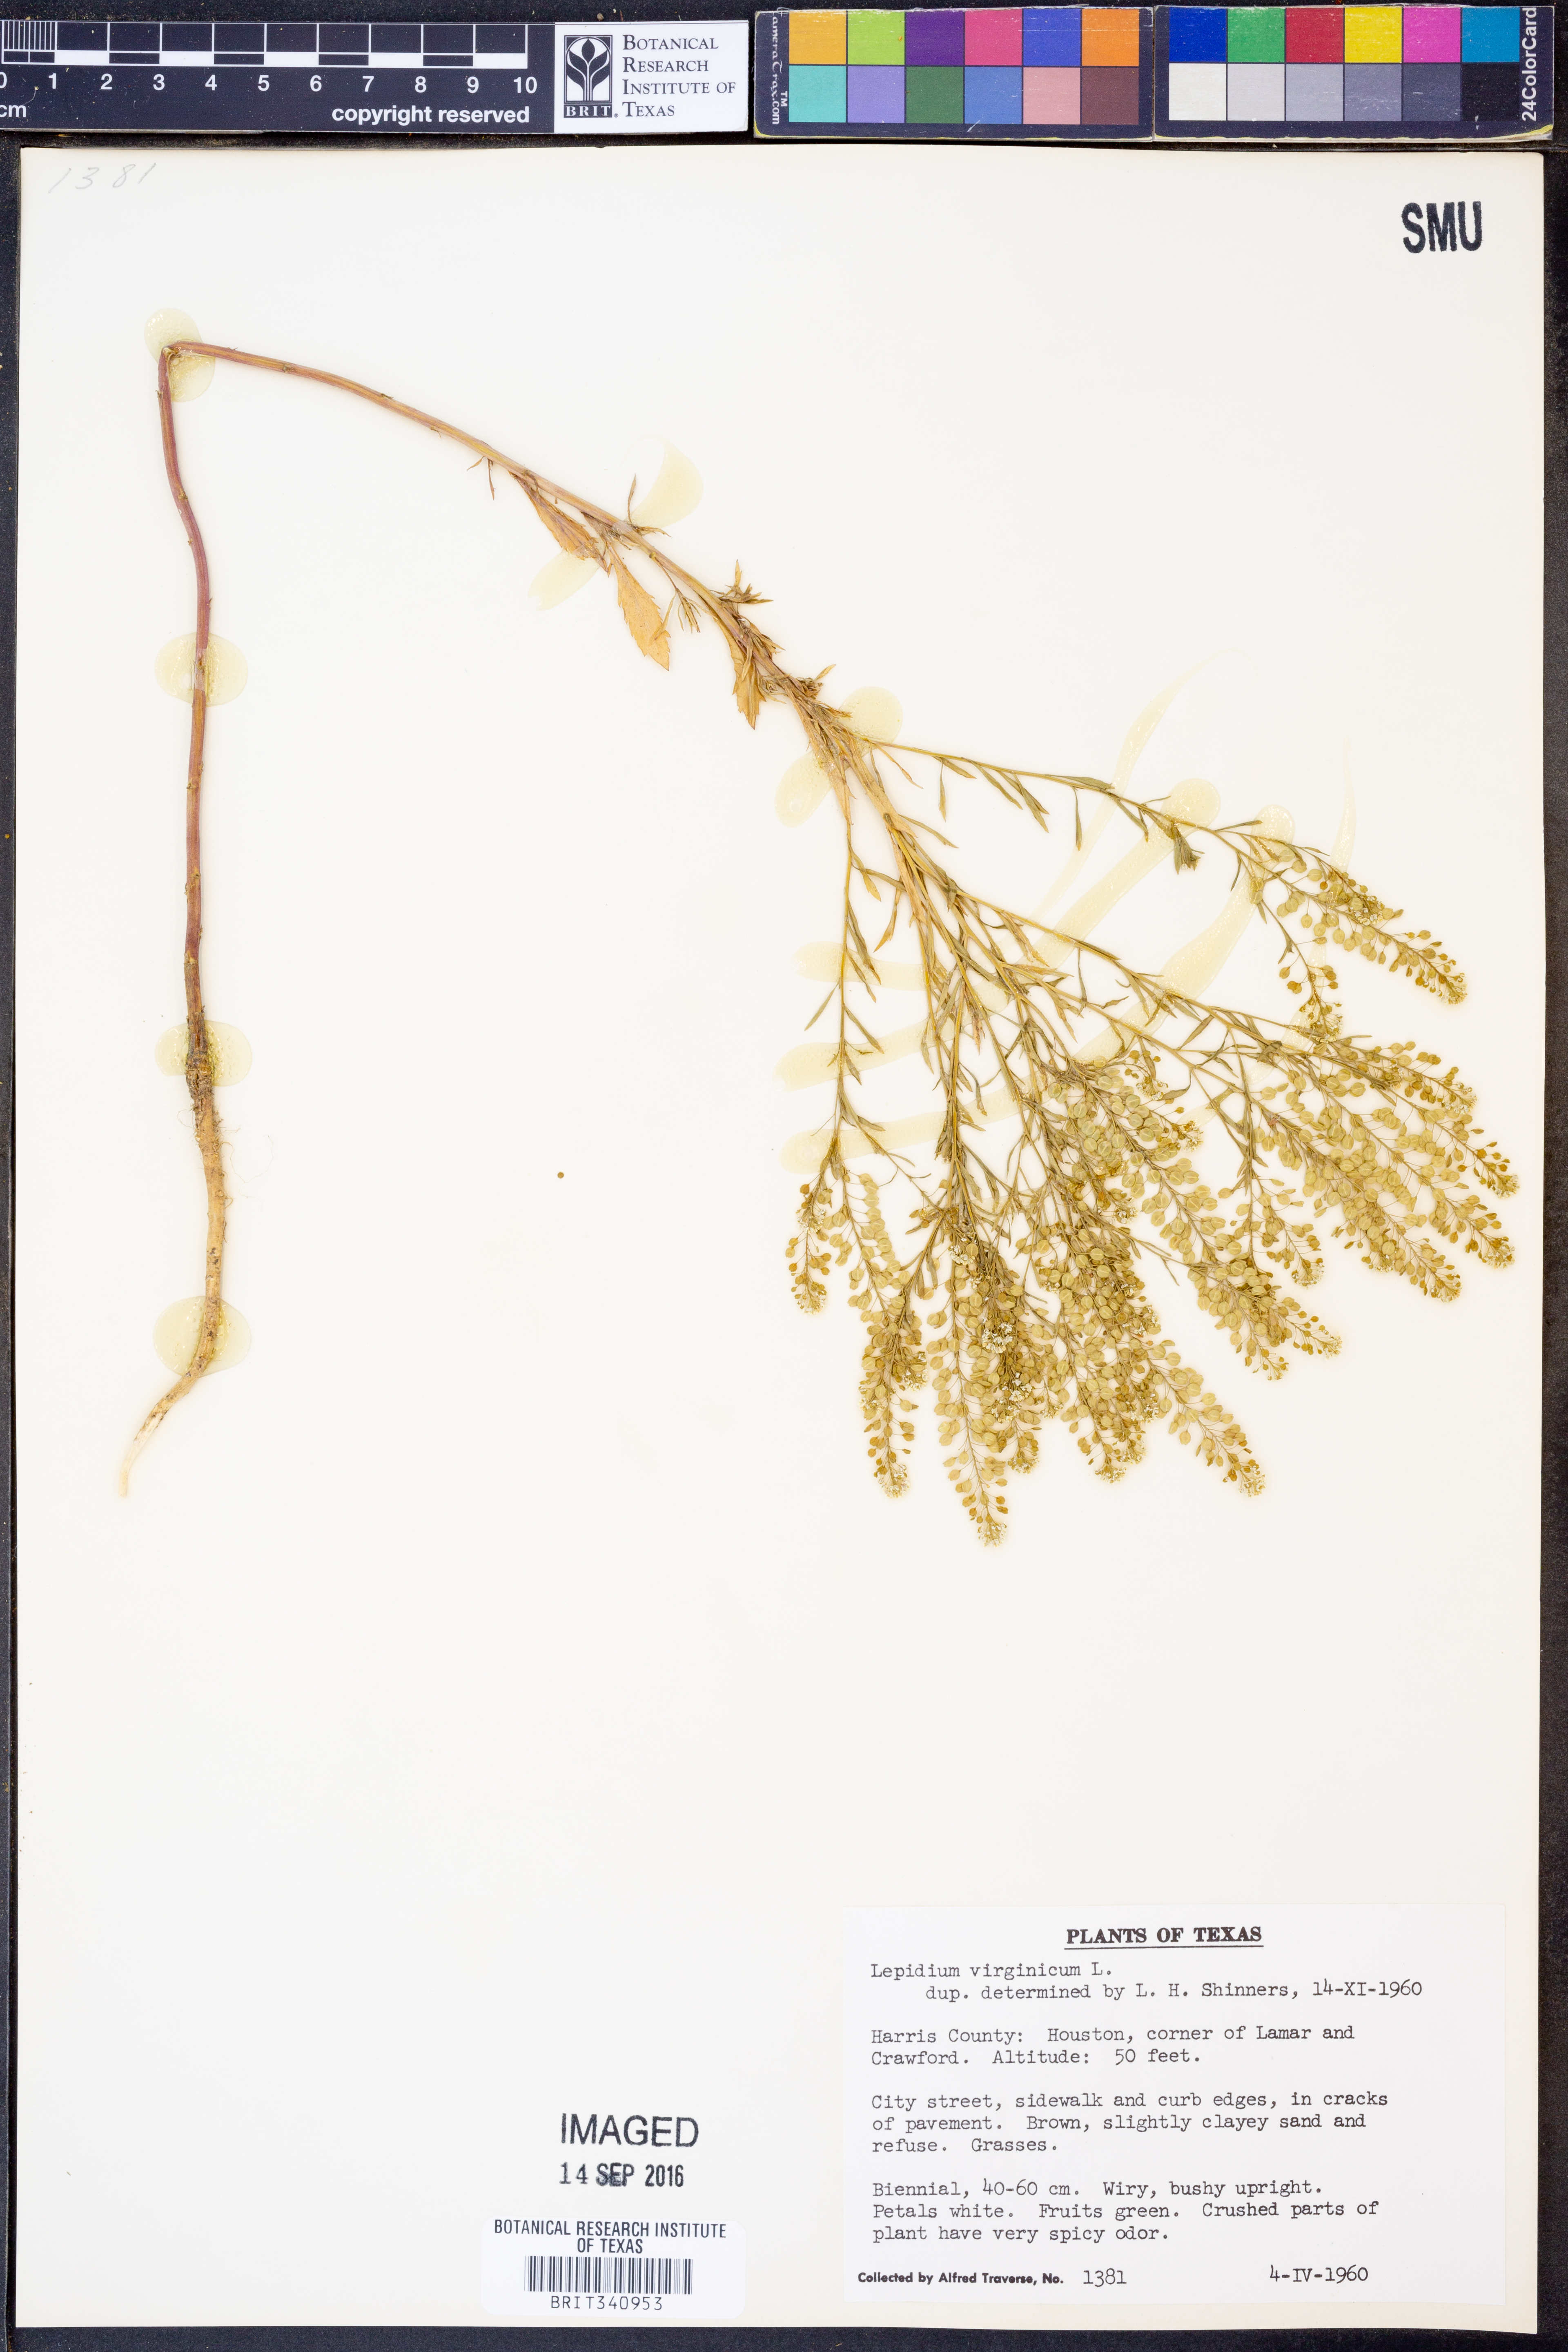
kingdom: Plantae
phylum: Tracheophyta
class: Magnoliopsida
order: Brassicales
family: Brassicaceae
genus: Lepidium
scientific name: Lepidium virginicum
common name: Least pepperwort
